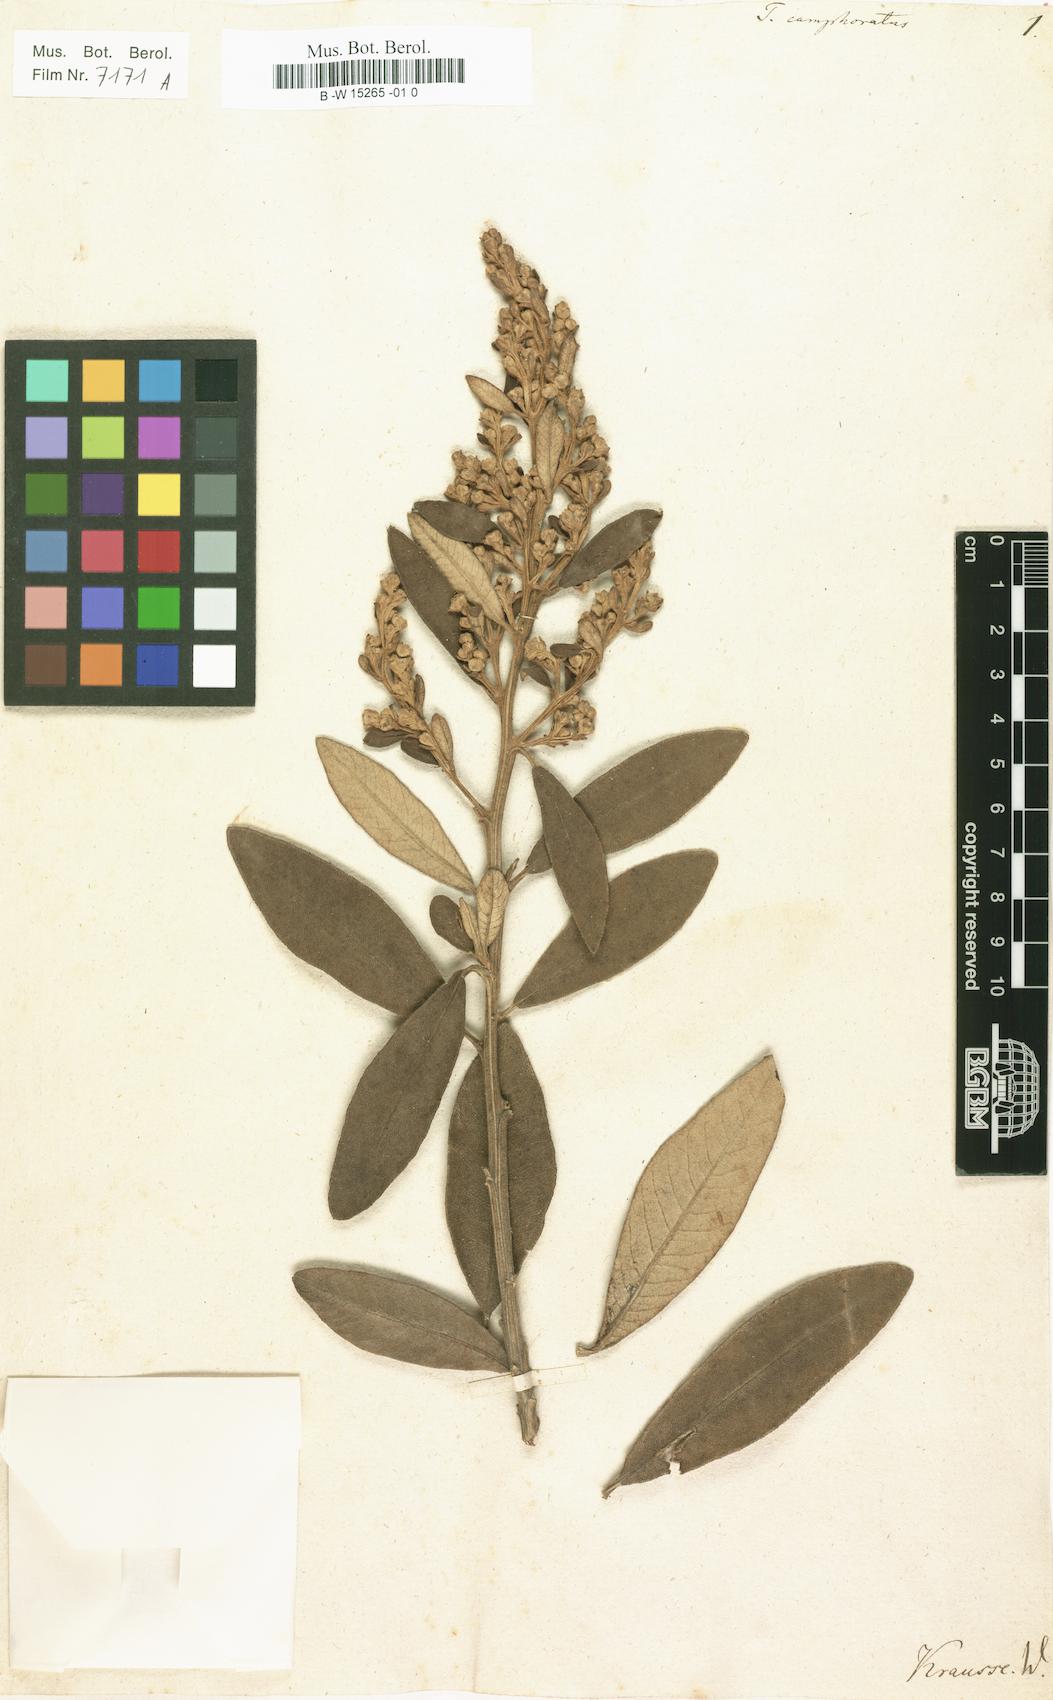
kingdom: Plantae
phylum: Tracheophyta
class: Magnoliopsida
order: Asterales
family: Asteraceae
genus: Tarchonanthus
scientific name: Tarchonanthus camphoratus
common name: Camphorwood
